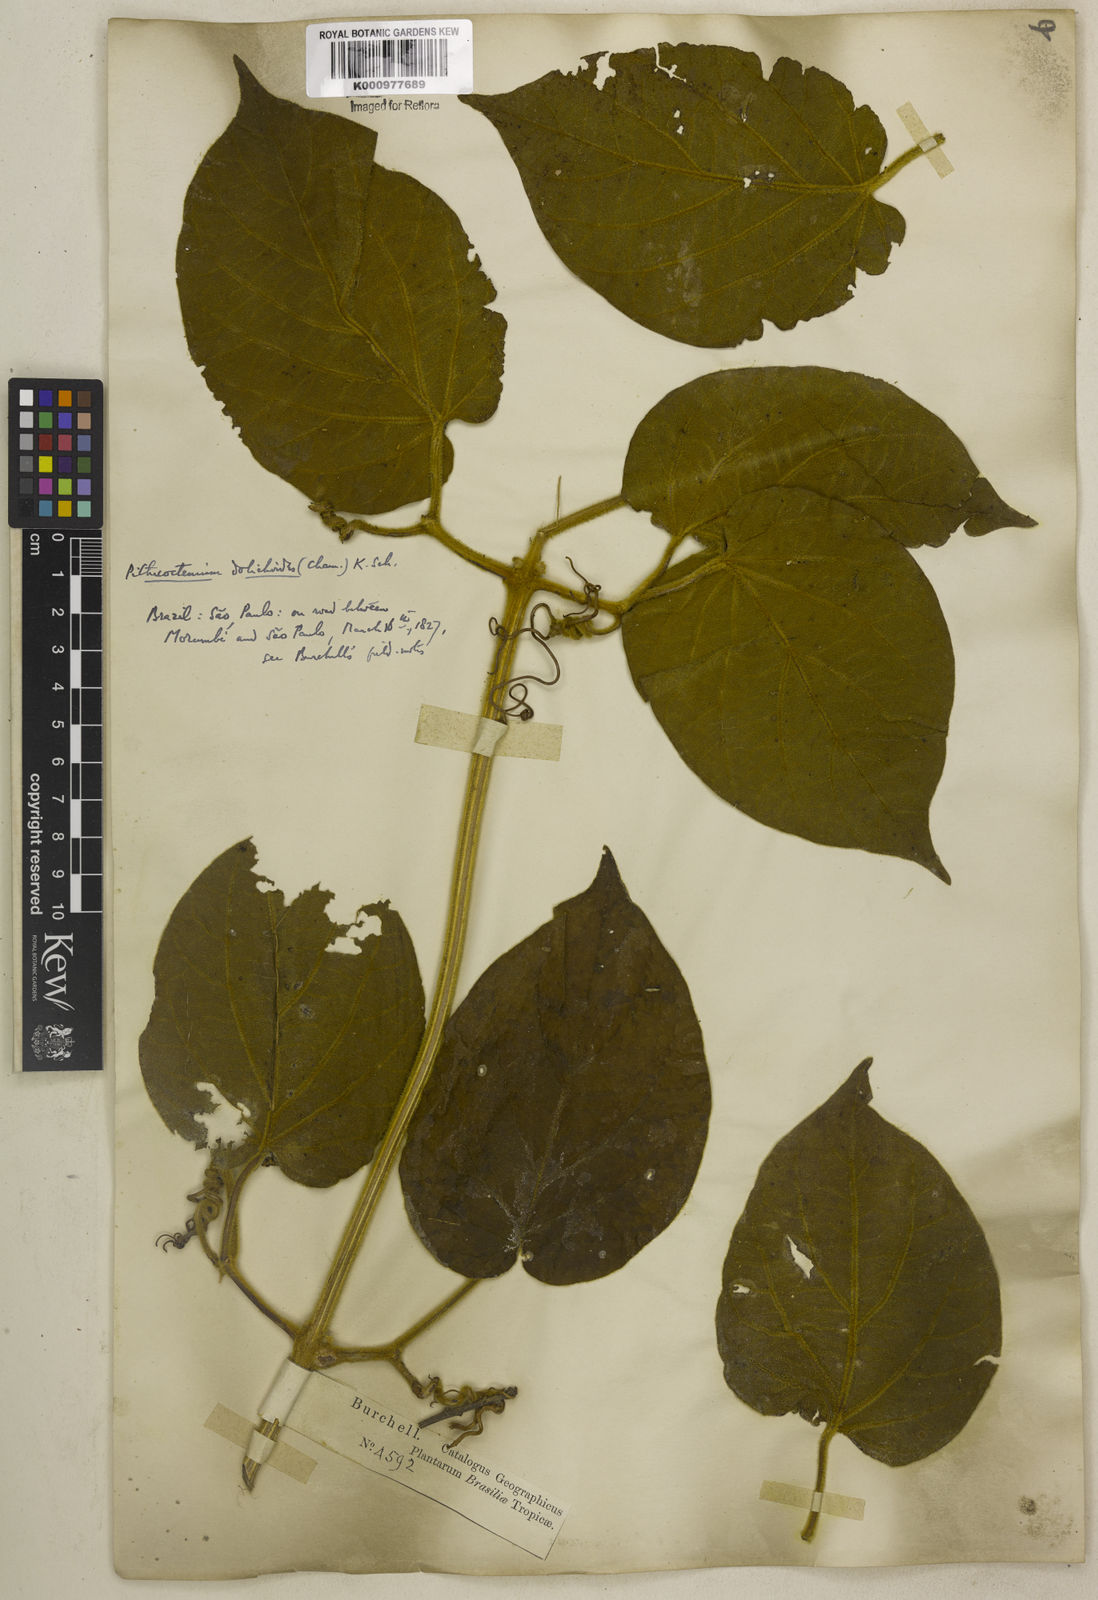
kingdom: Plantae
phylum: Tracheophyta
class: Magnoliopsida
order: Lamiales
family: Bignoniaceae
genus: Amphilophium
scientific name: Amphilophium dolichoides
